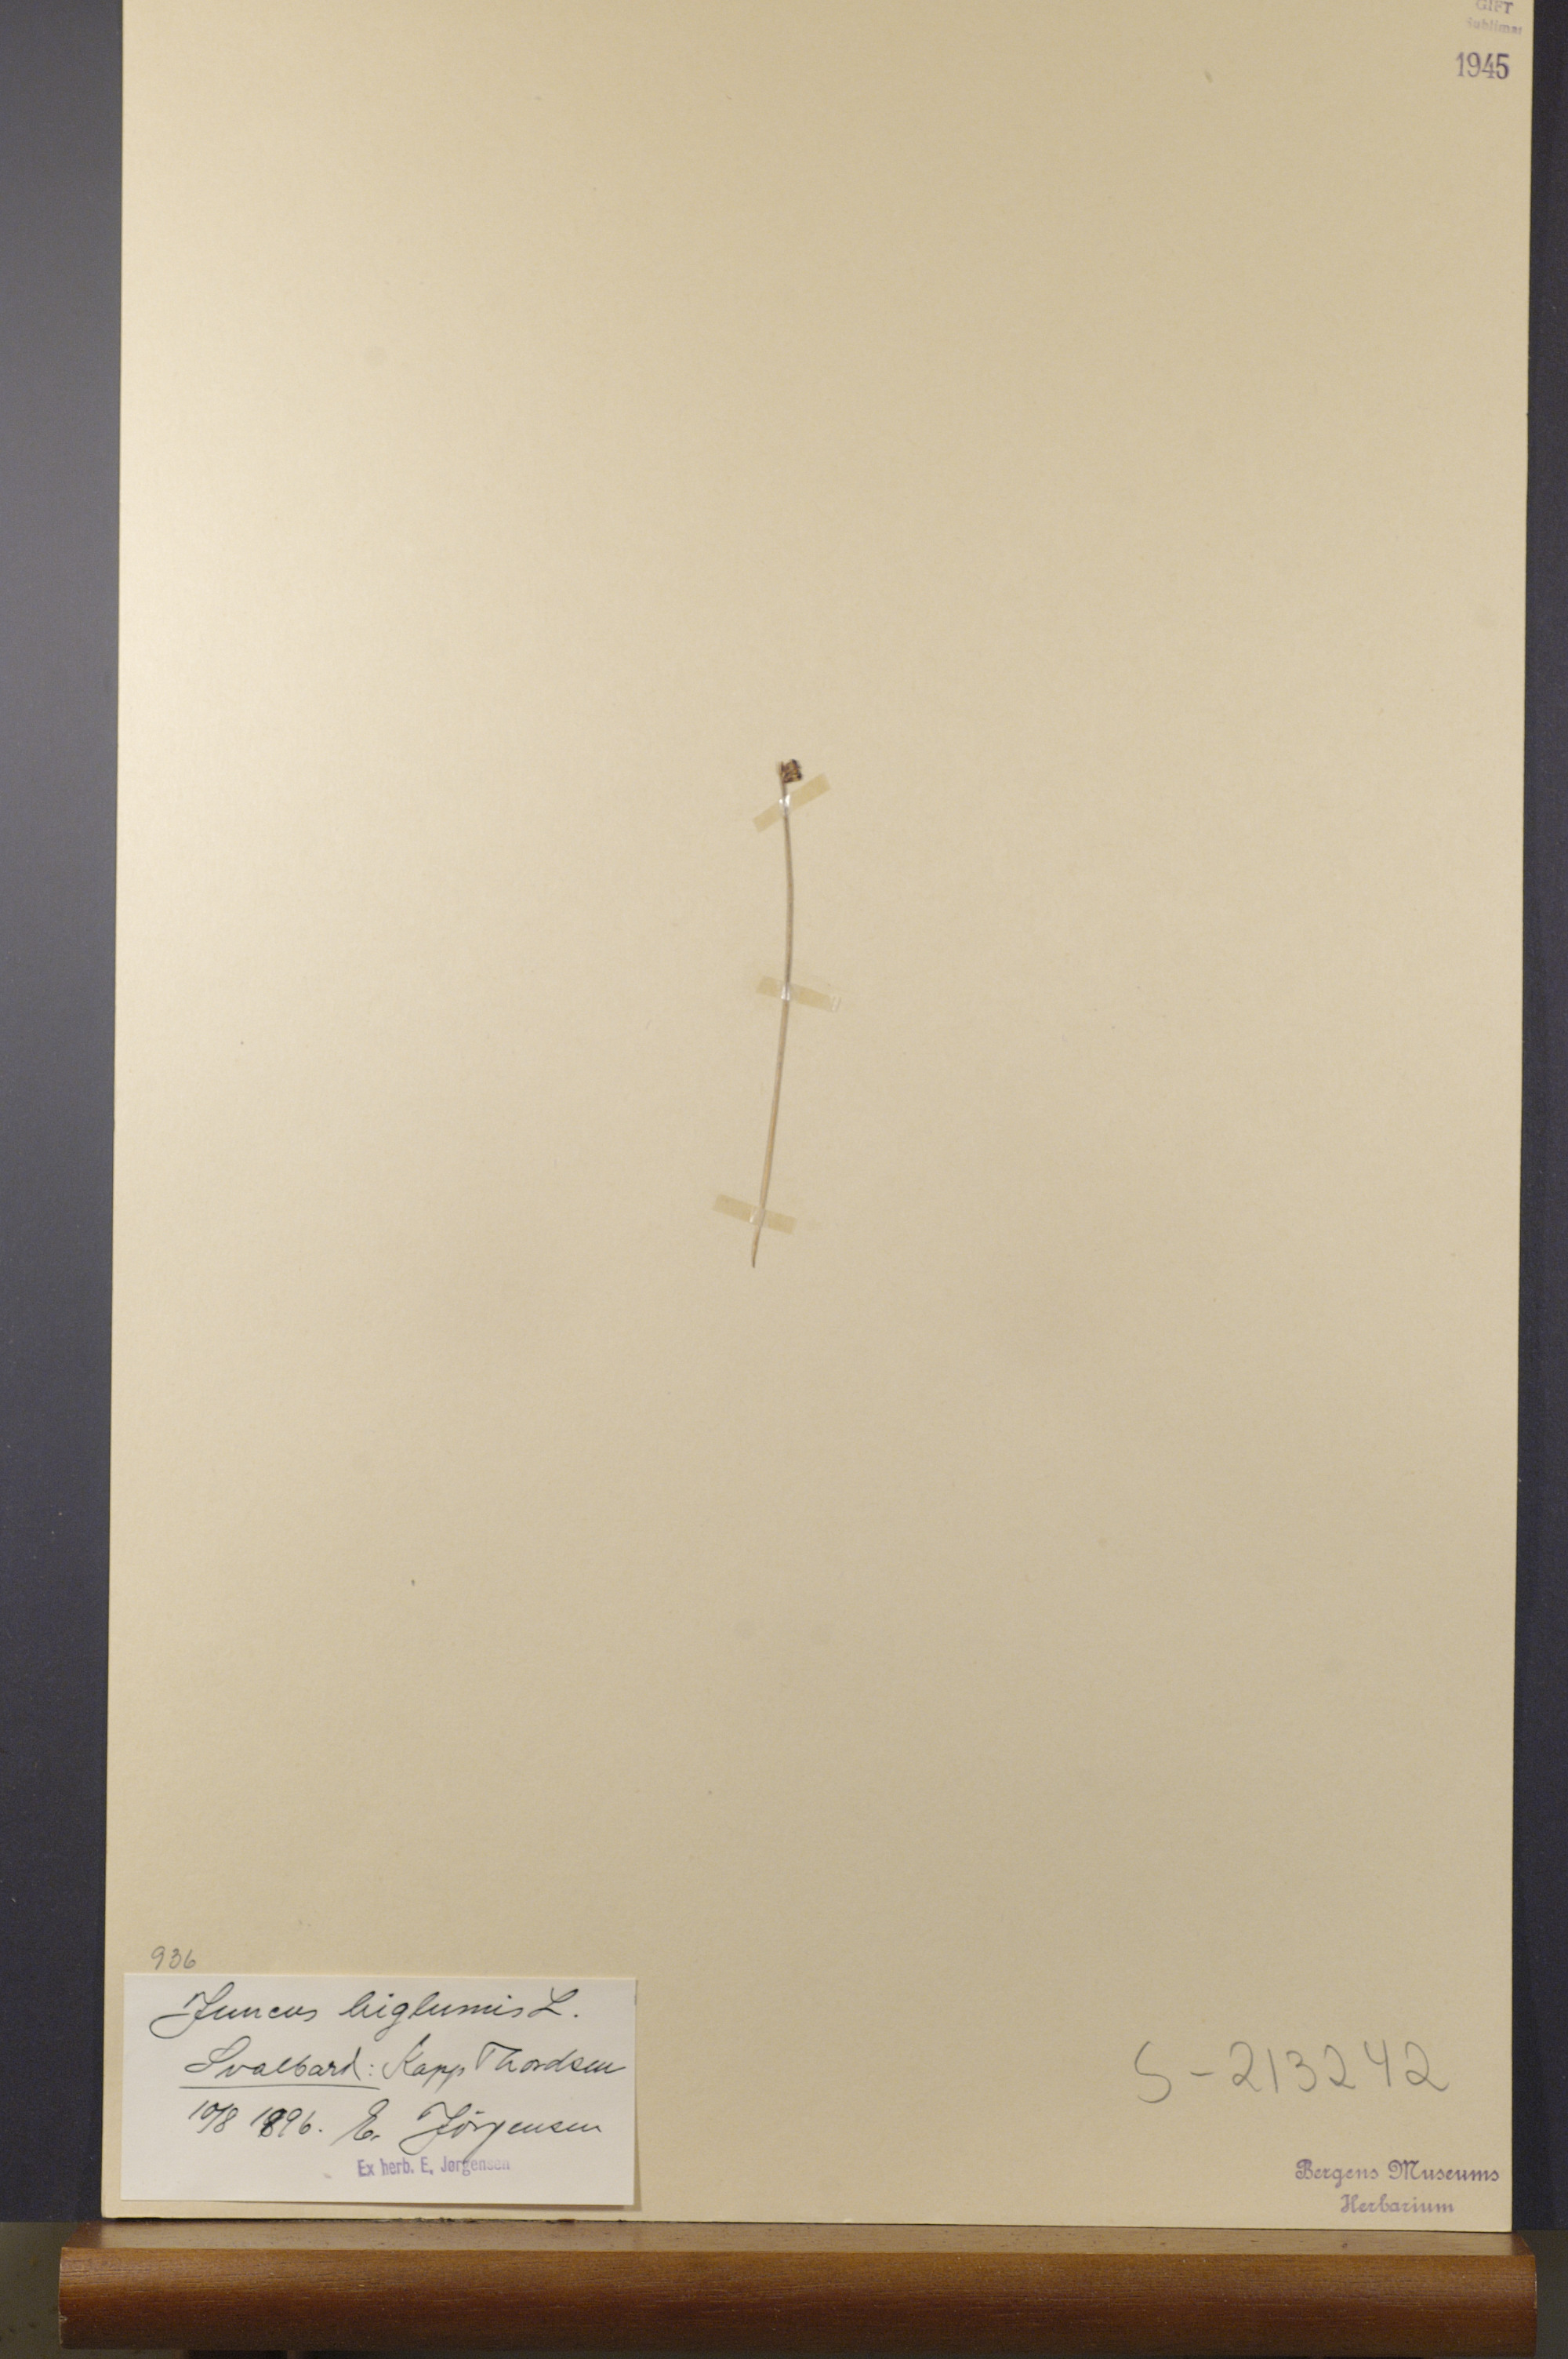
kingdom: Plantae
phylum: Tracheophyta
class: Liliopsida
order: Poales
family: Juncaceae
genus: Juncus
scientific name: Juncus biglumis
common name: Two-flowered rush
